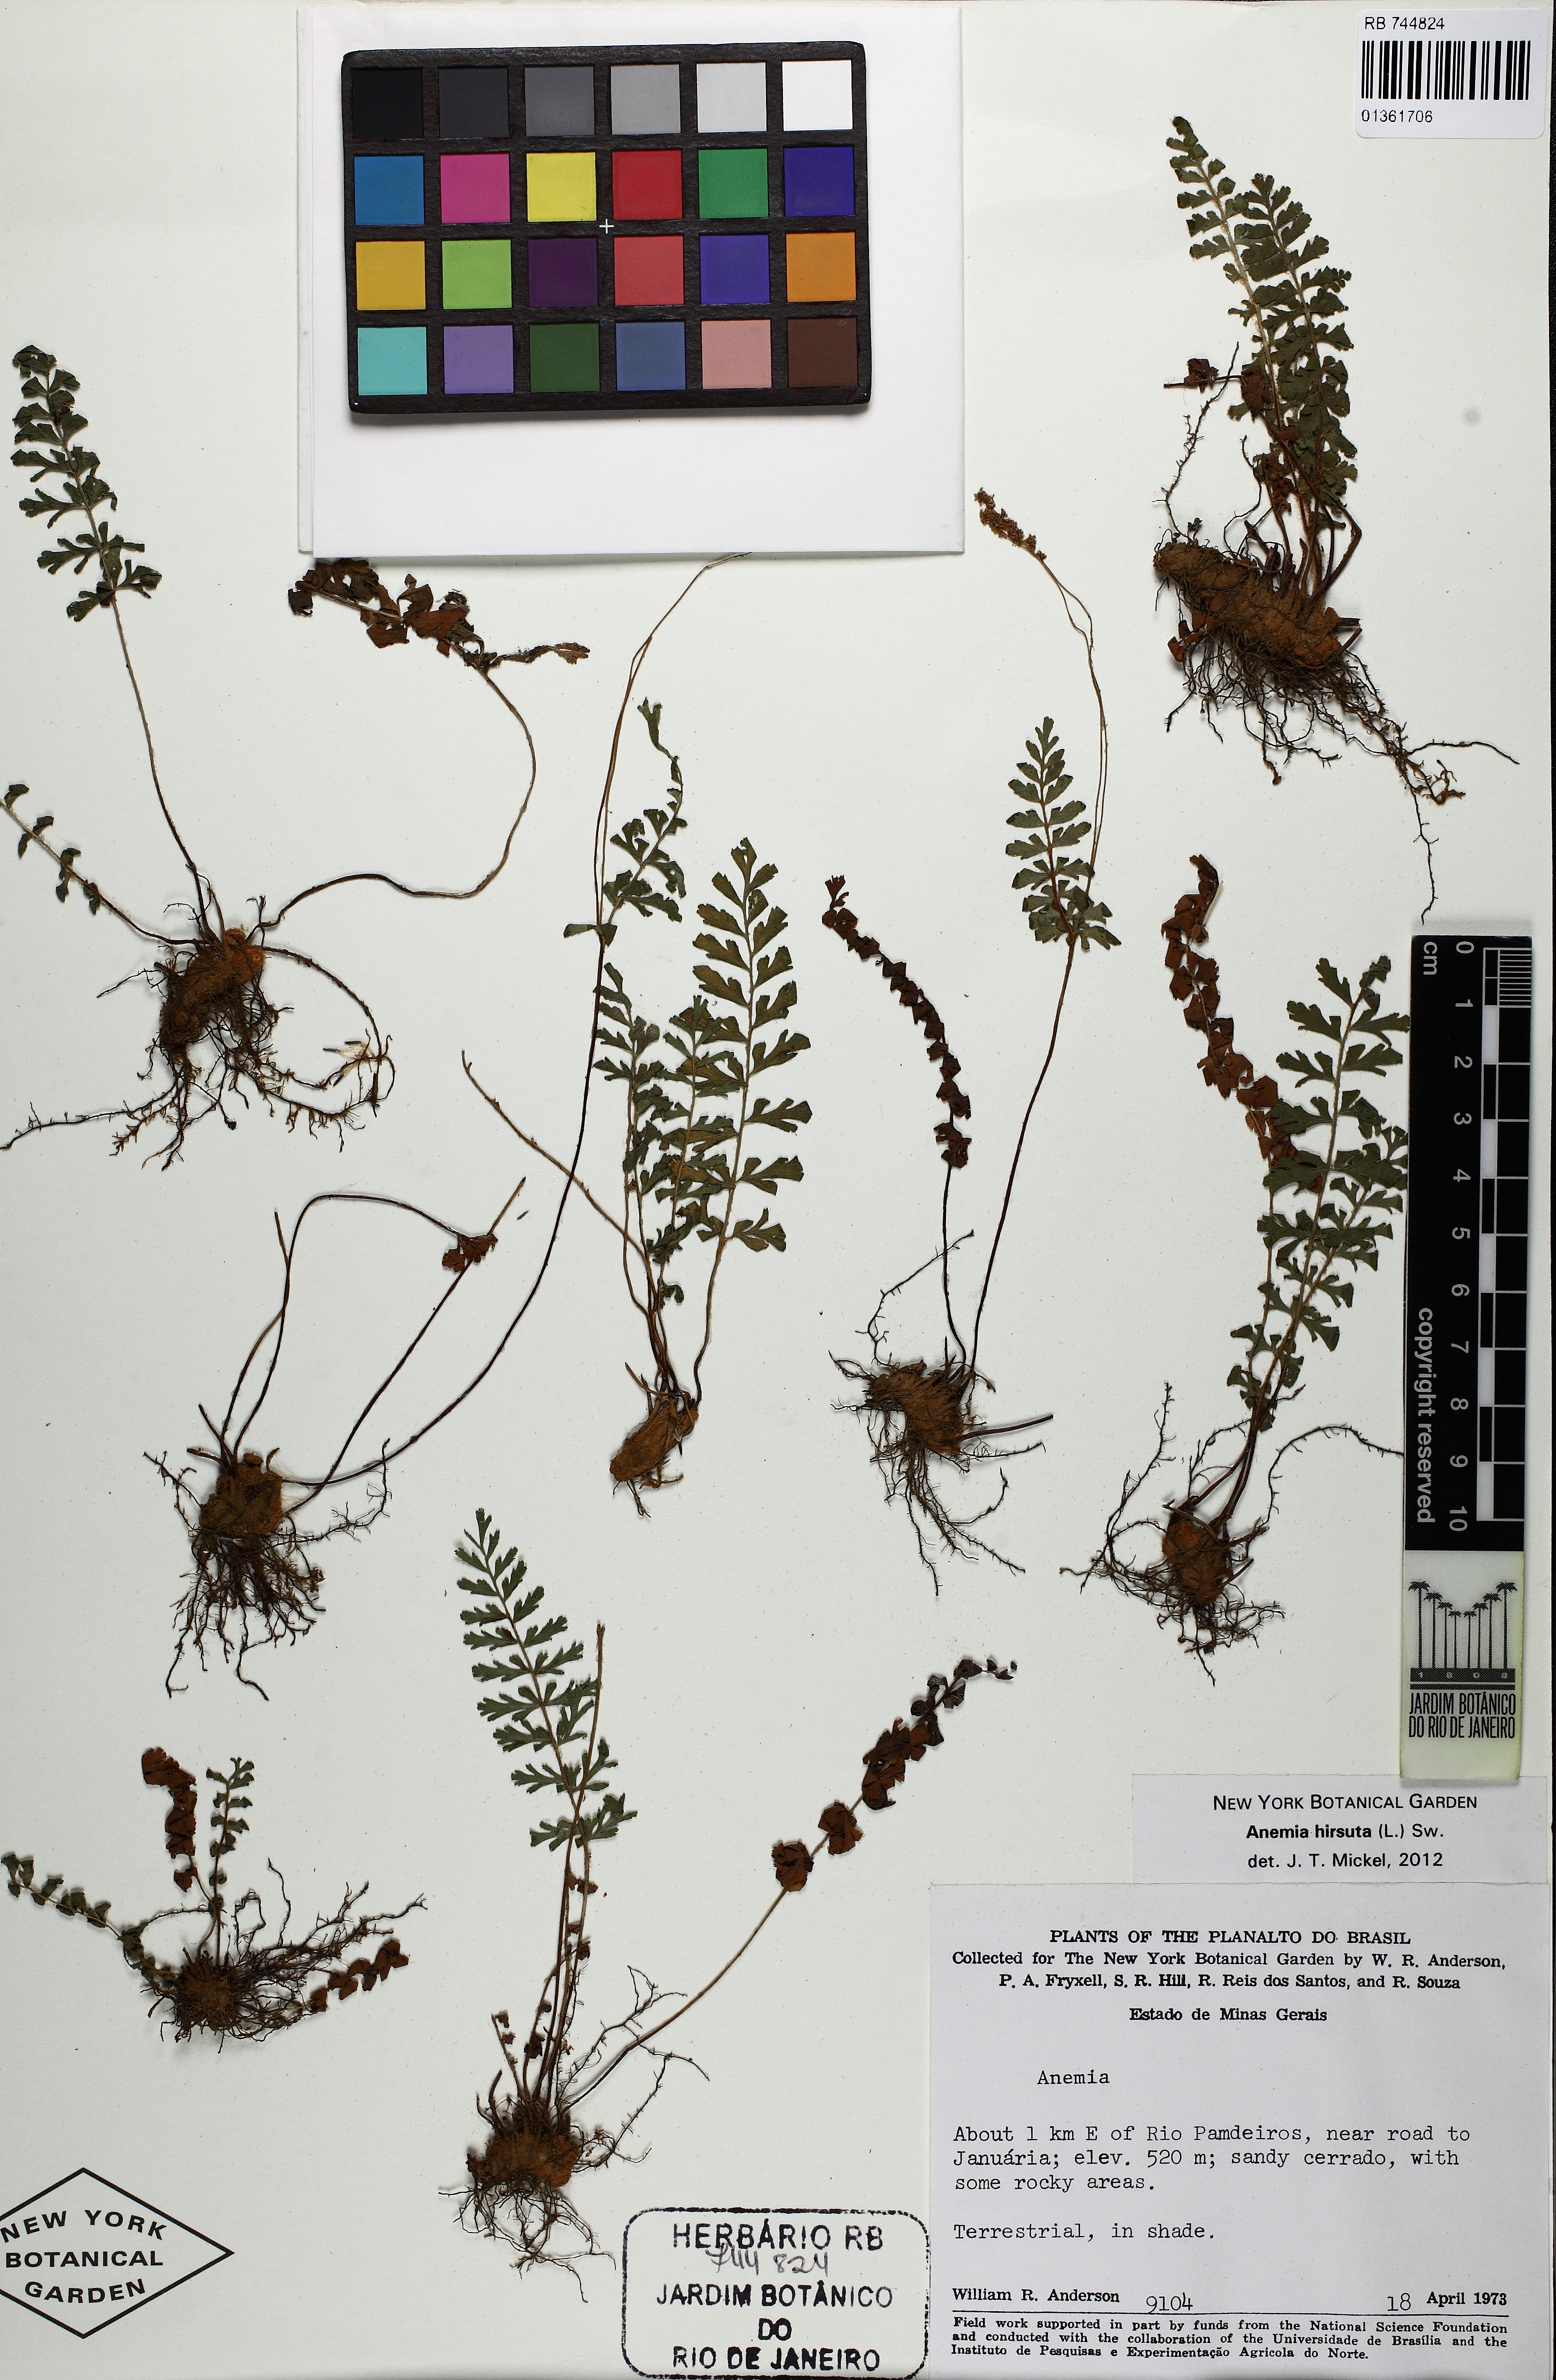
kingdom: Plantae
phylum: Tracheophyta
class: Polypodiopsida
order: Schizaeales
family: Anemiaceae
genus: Anemia
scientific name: Anemia hirsuta
